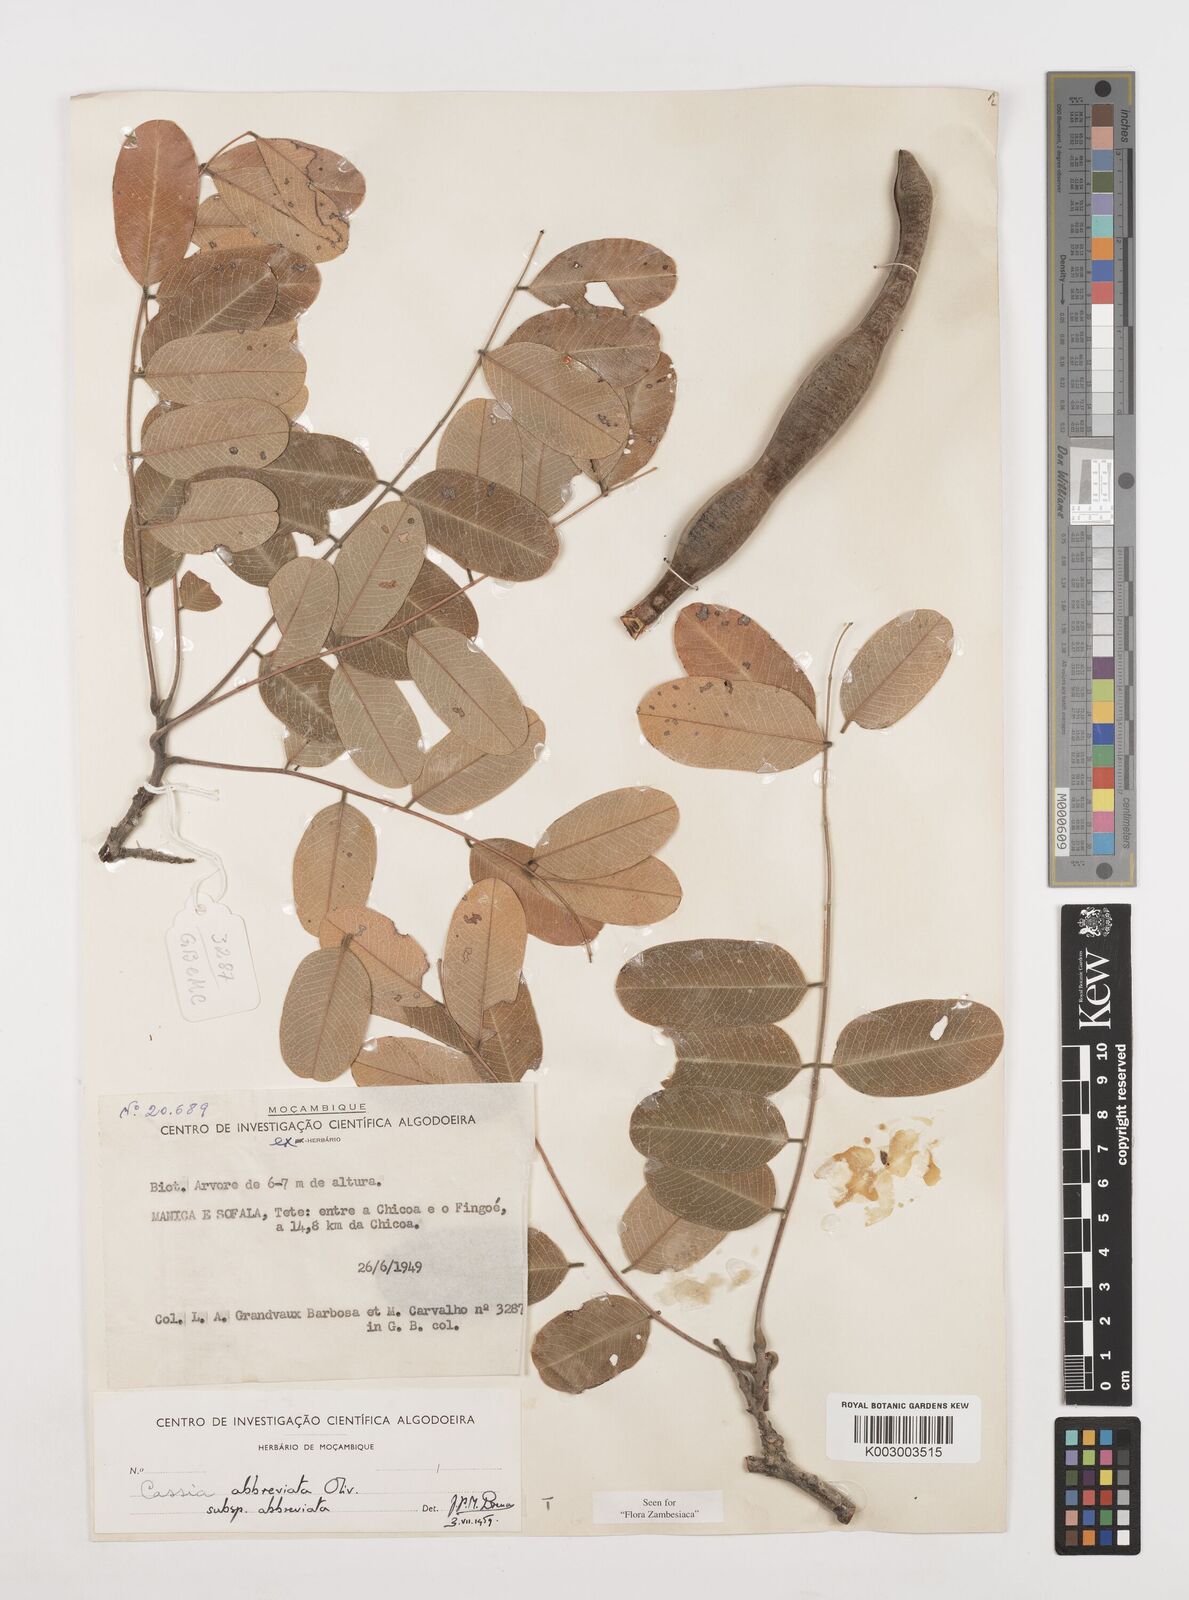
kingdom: Plantae
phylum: Tracheophyta
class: Magnoliopsida
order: Fabales
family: Fabaceae
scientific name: Fabaceae
